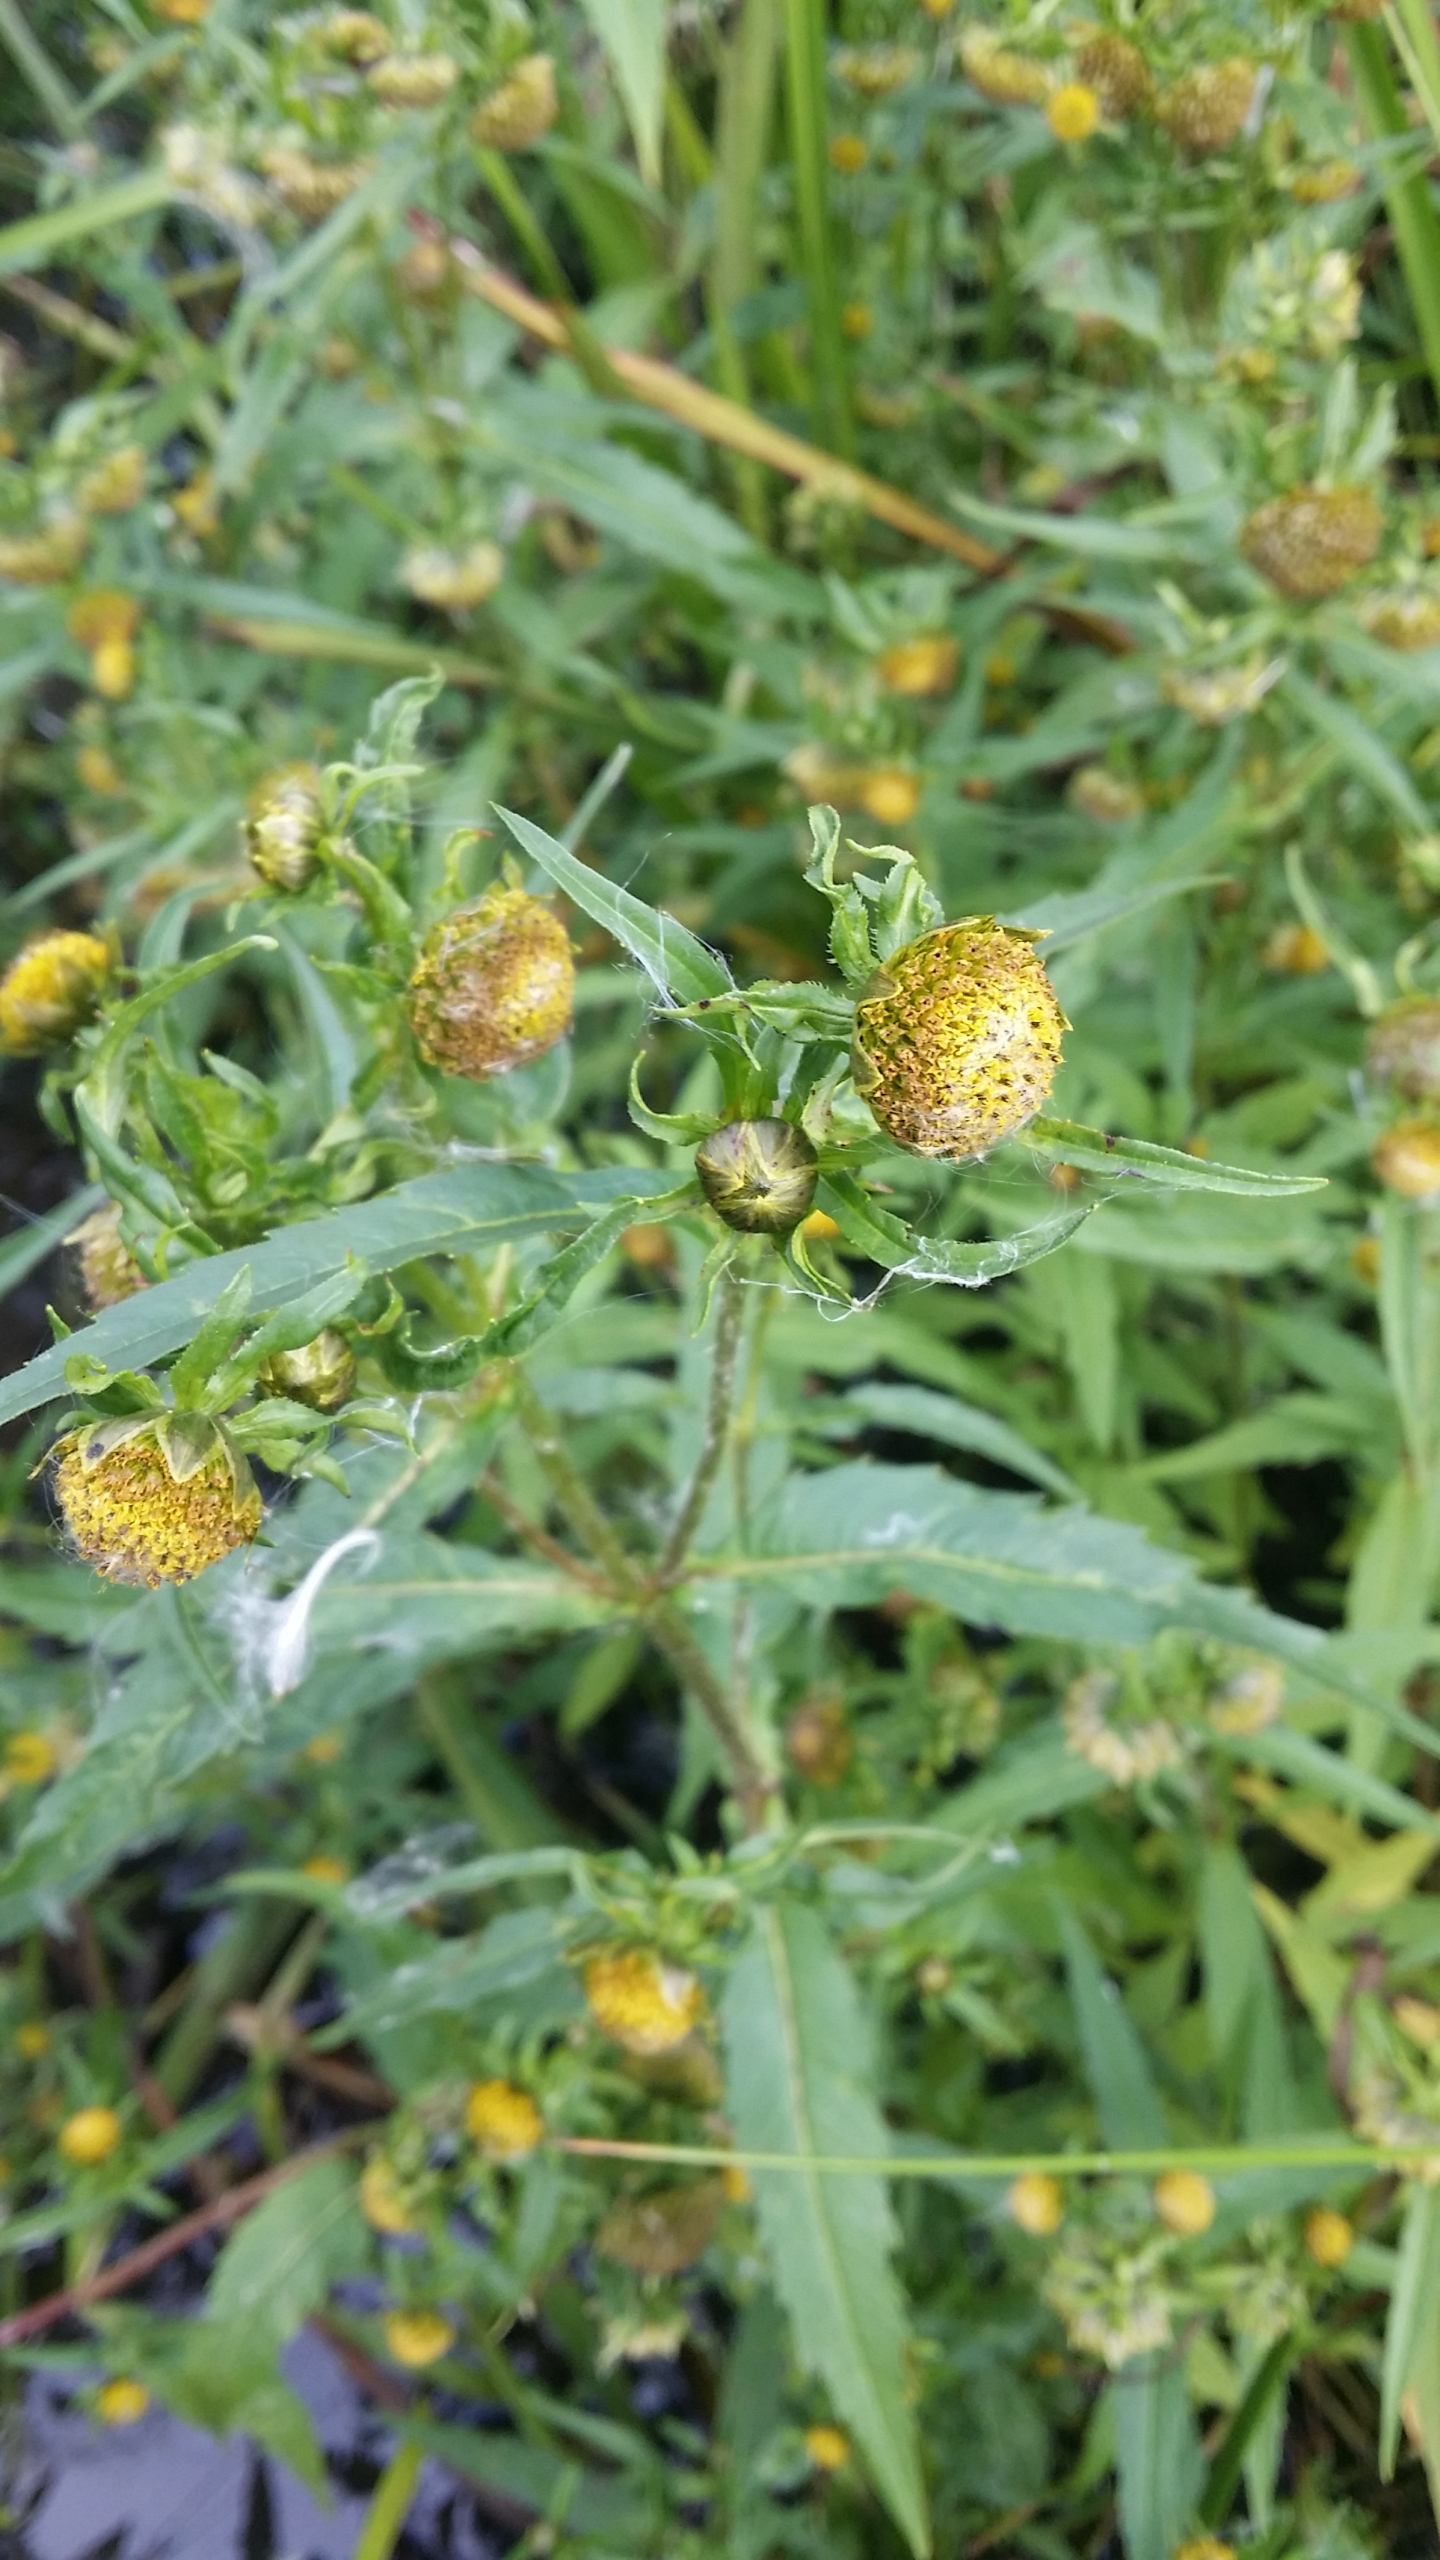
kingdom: Plantae
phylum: Tracheophyta
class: Magnoliopsida
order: Asterales
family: Asteraceae
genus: Bidens
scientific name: Bidens cernua
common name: Nikkende brøndsel
